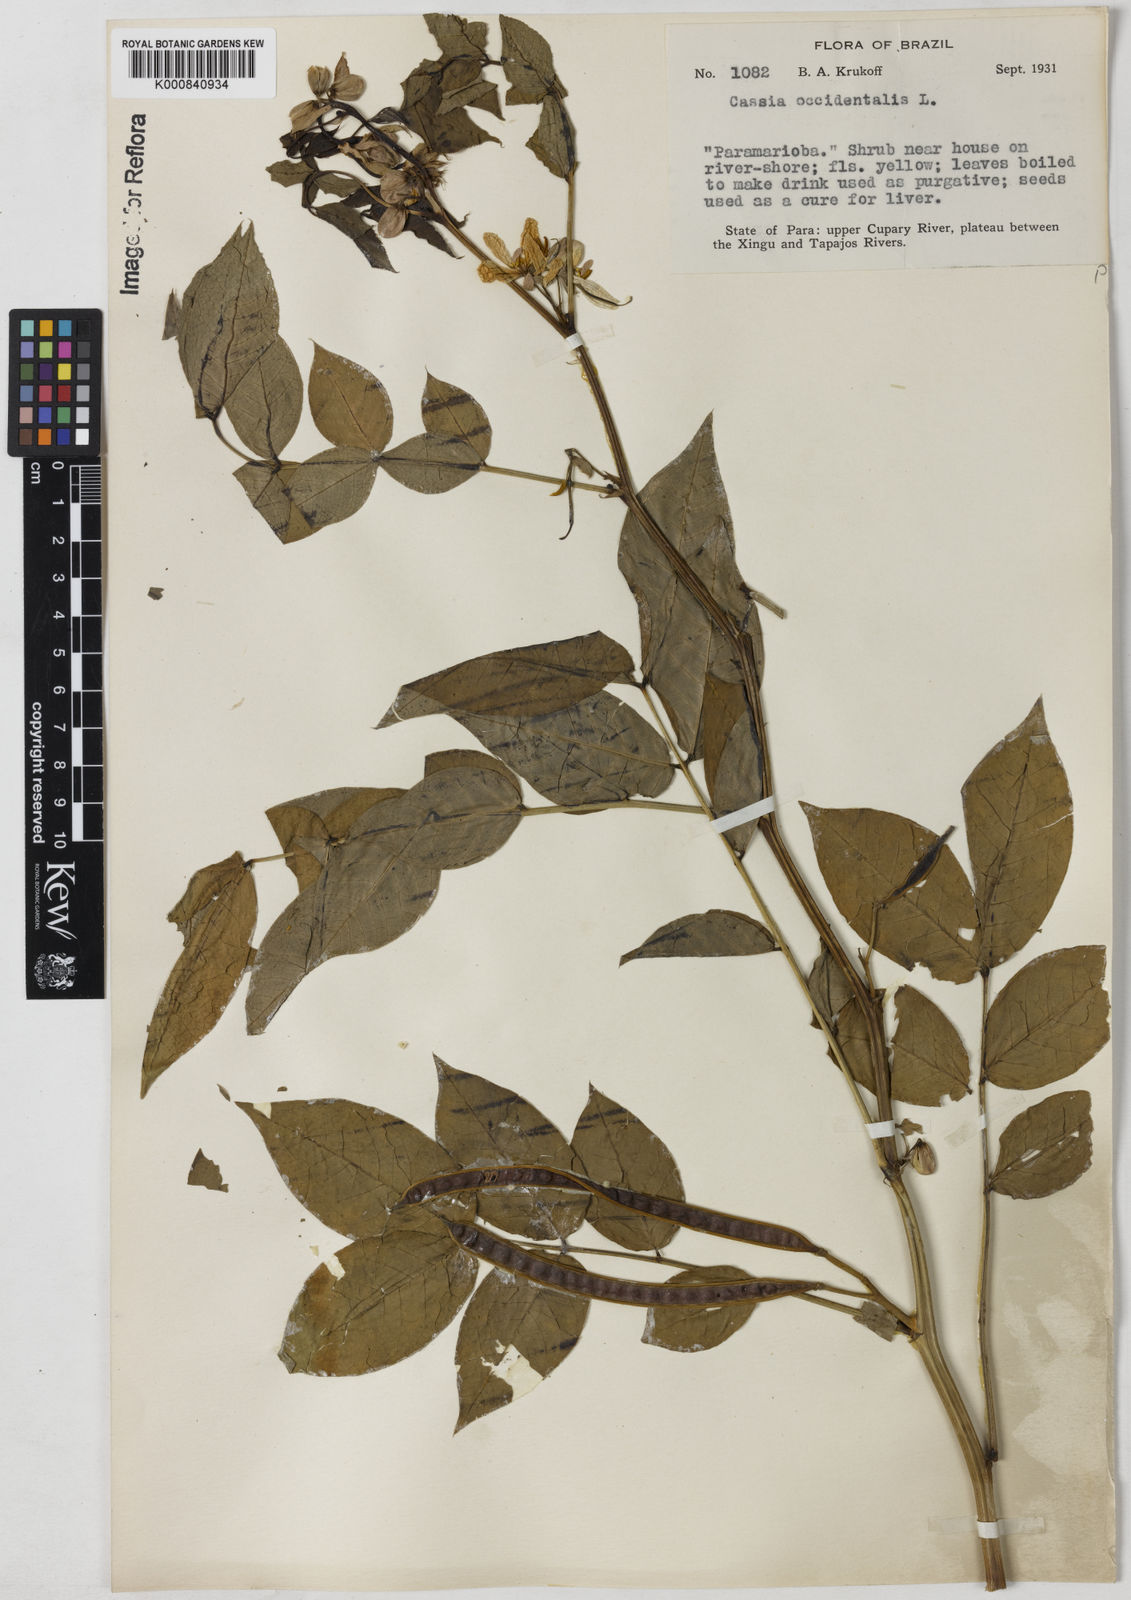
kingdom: Plantae
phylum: Tracheophyta
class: Magnoliopsida
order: Fabales
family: Fabaceae
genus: Senna
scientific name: Senna occidentalis
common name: Septicweed
